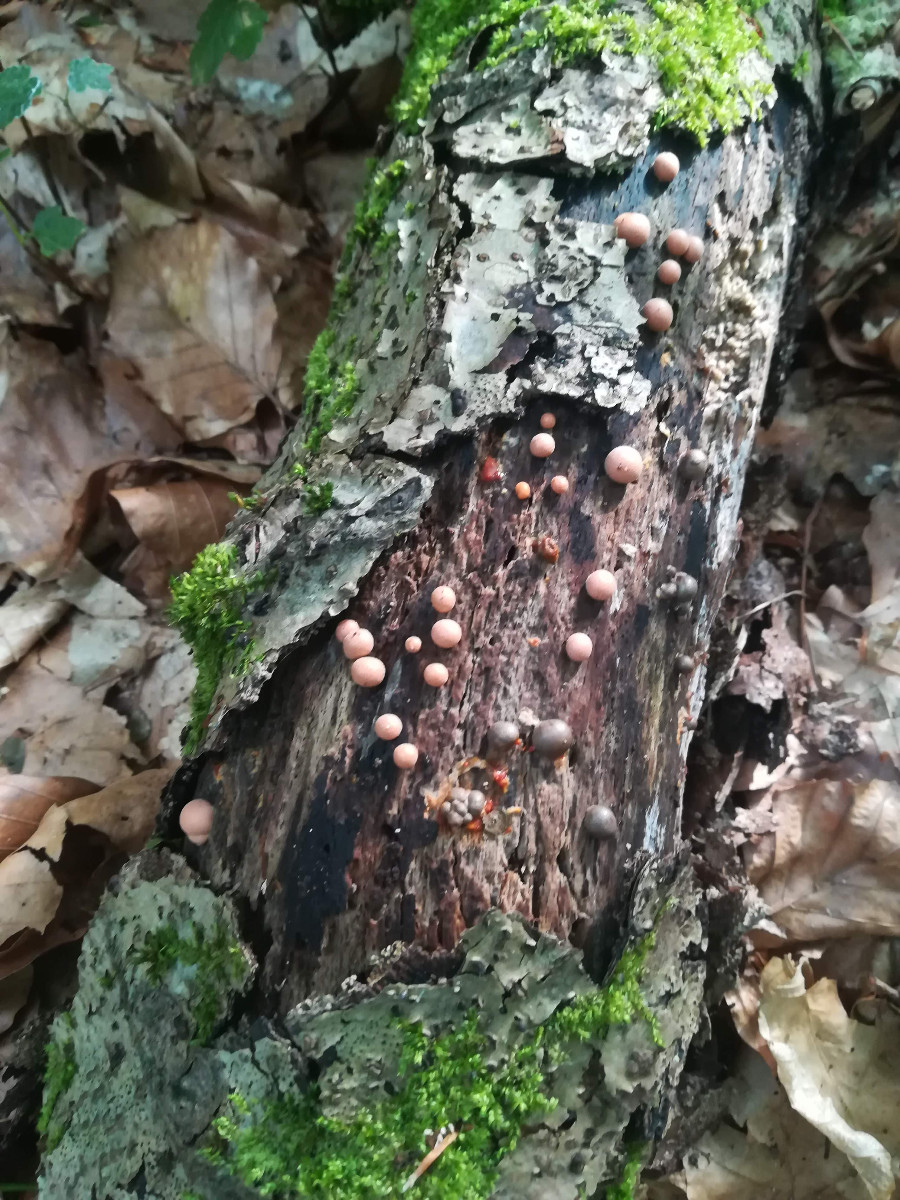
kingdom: Protozoa
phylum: Mycetozoa
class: Myxomycetes
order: Cribrariales
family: Tubiferaceae
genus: Lycogala
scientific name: Lycogala epidendrum
